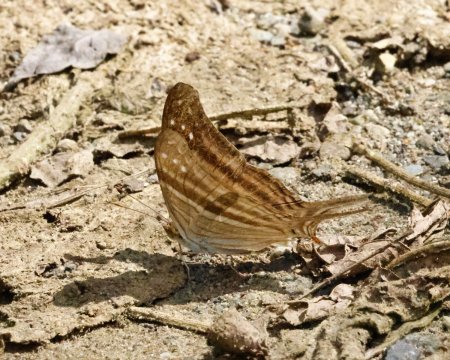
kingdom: Animalia
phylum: Arthropoda
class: Insecta
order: Lepidoptera
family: Nymphalidae
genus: Marpesia
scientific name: Marpesia chiron
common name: Many-banded Daggerwing
